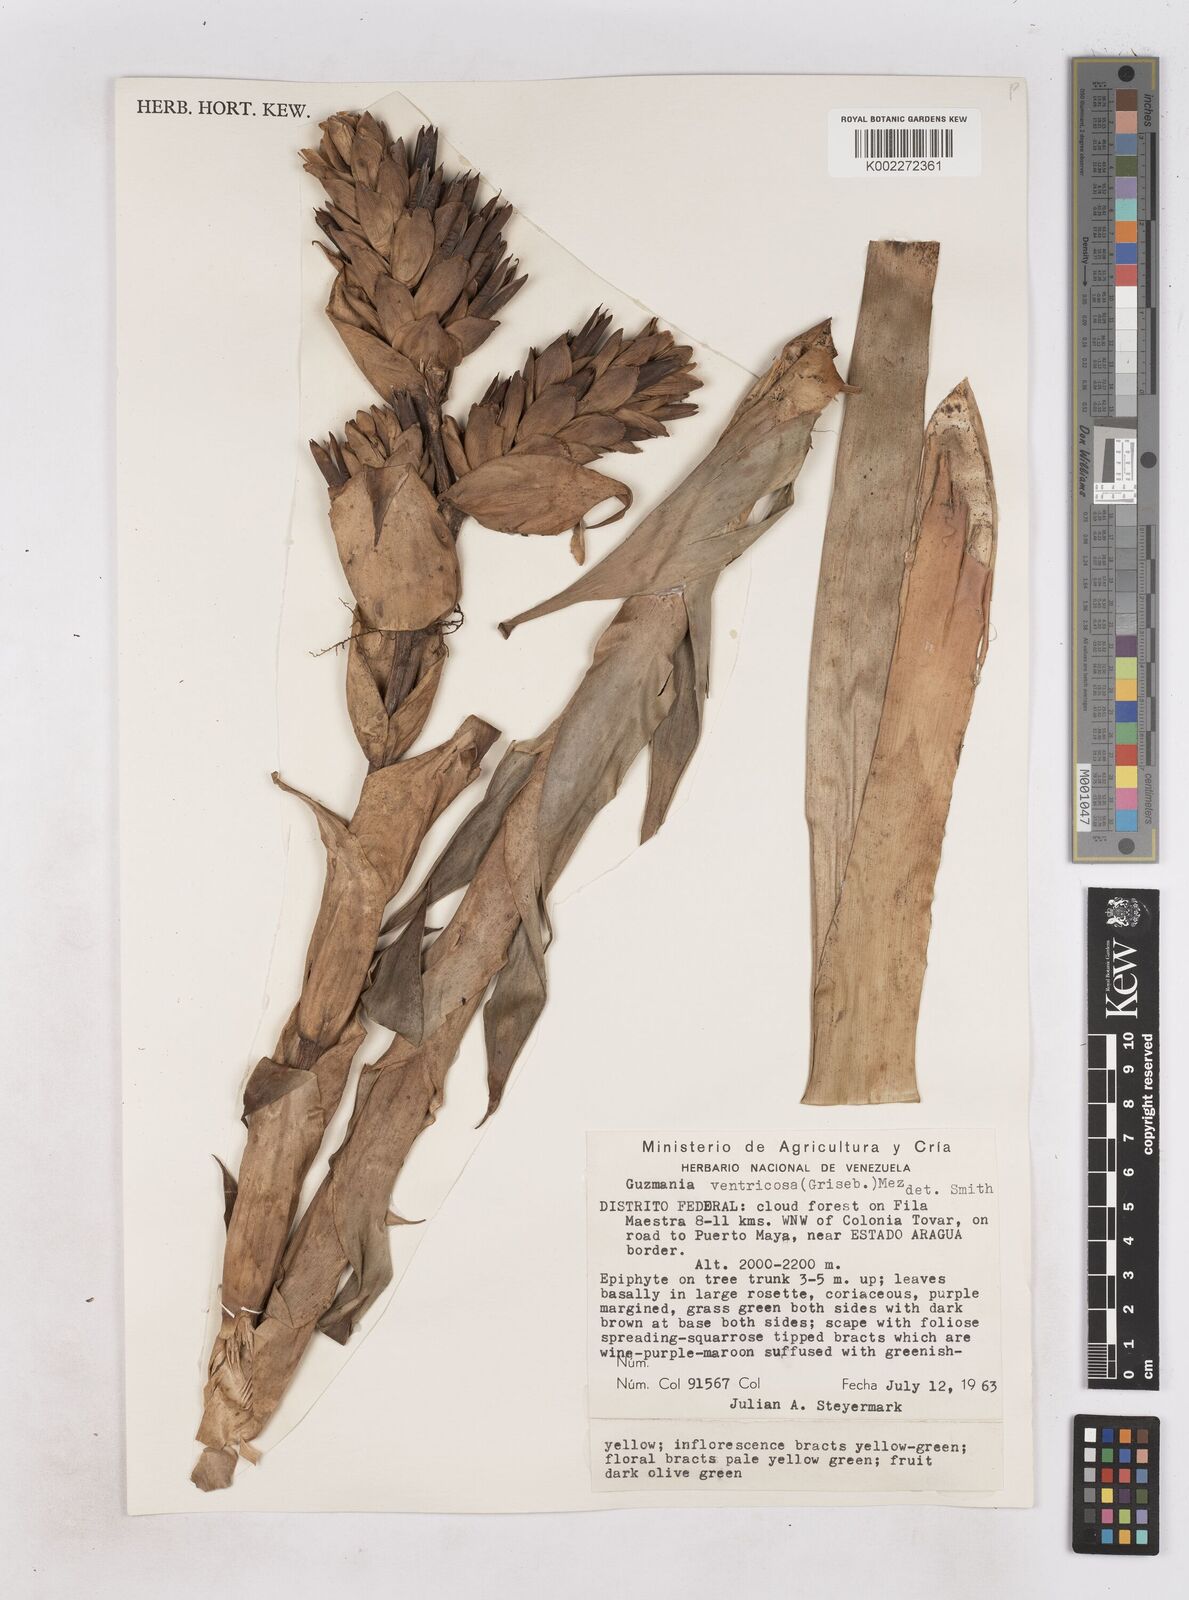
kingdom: Plantae
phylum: Tracheophyta
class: Liliopsida
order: Poales
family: Bromeliaceae
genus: Guzmania
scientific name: Guzmania ventricosa
